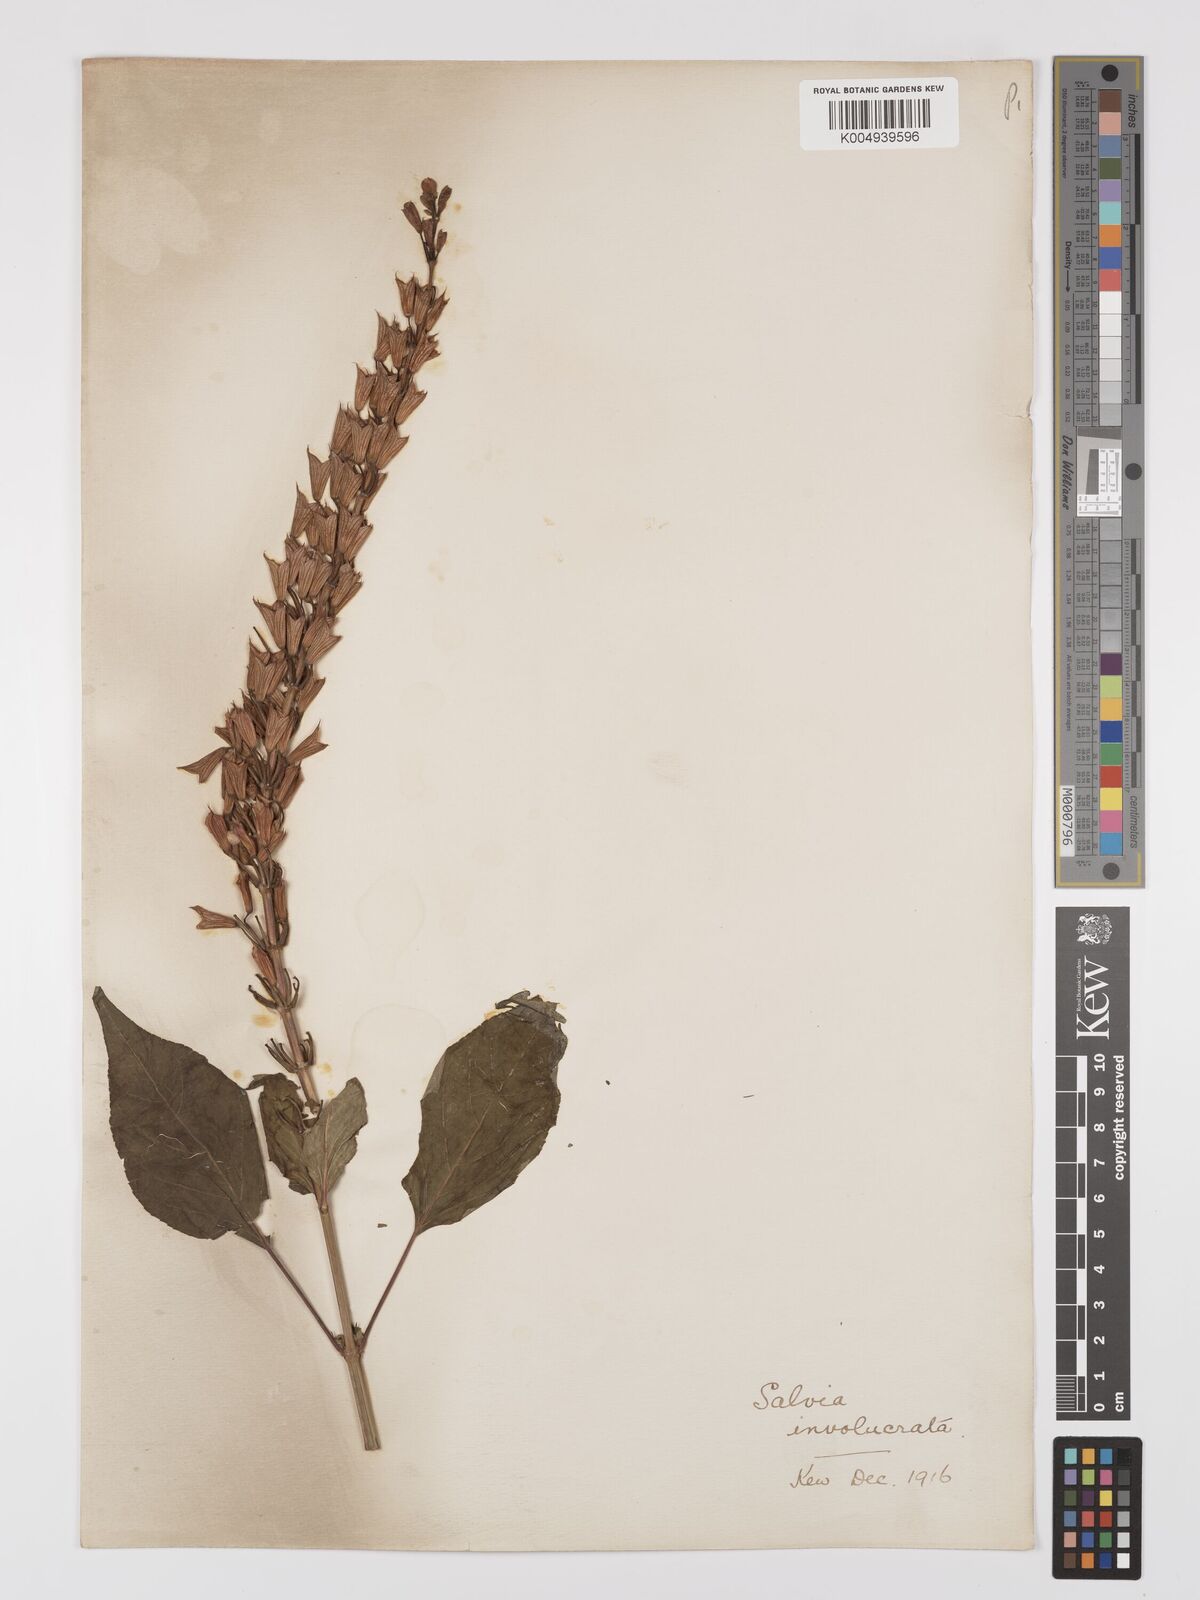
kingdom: Plantae
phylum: Tracheophyta
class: Magnoliopsida
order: Lamiales
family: Lamiaceae
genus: Salvia
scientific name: Salvia involucrata
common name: Roseleaf sage
